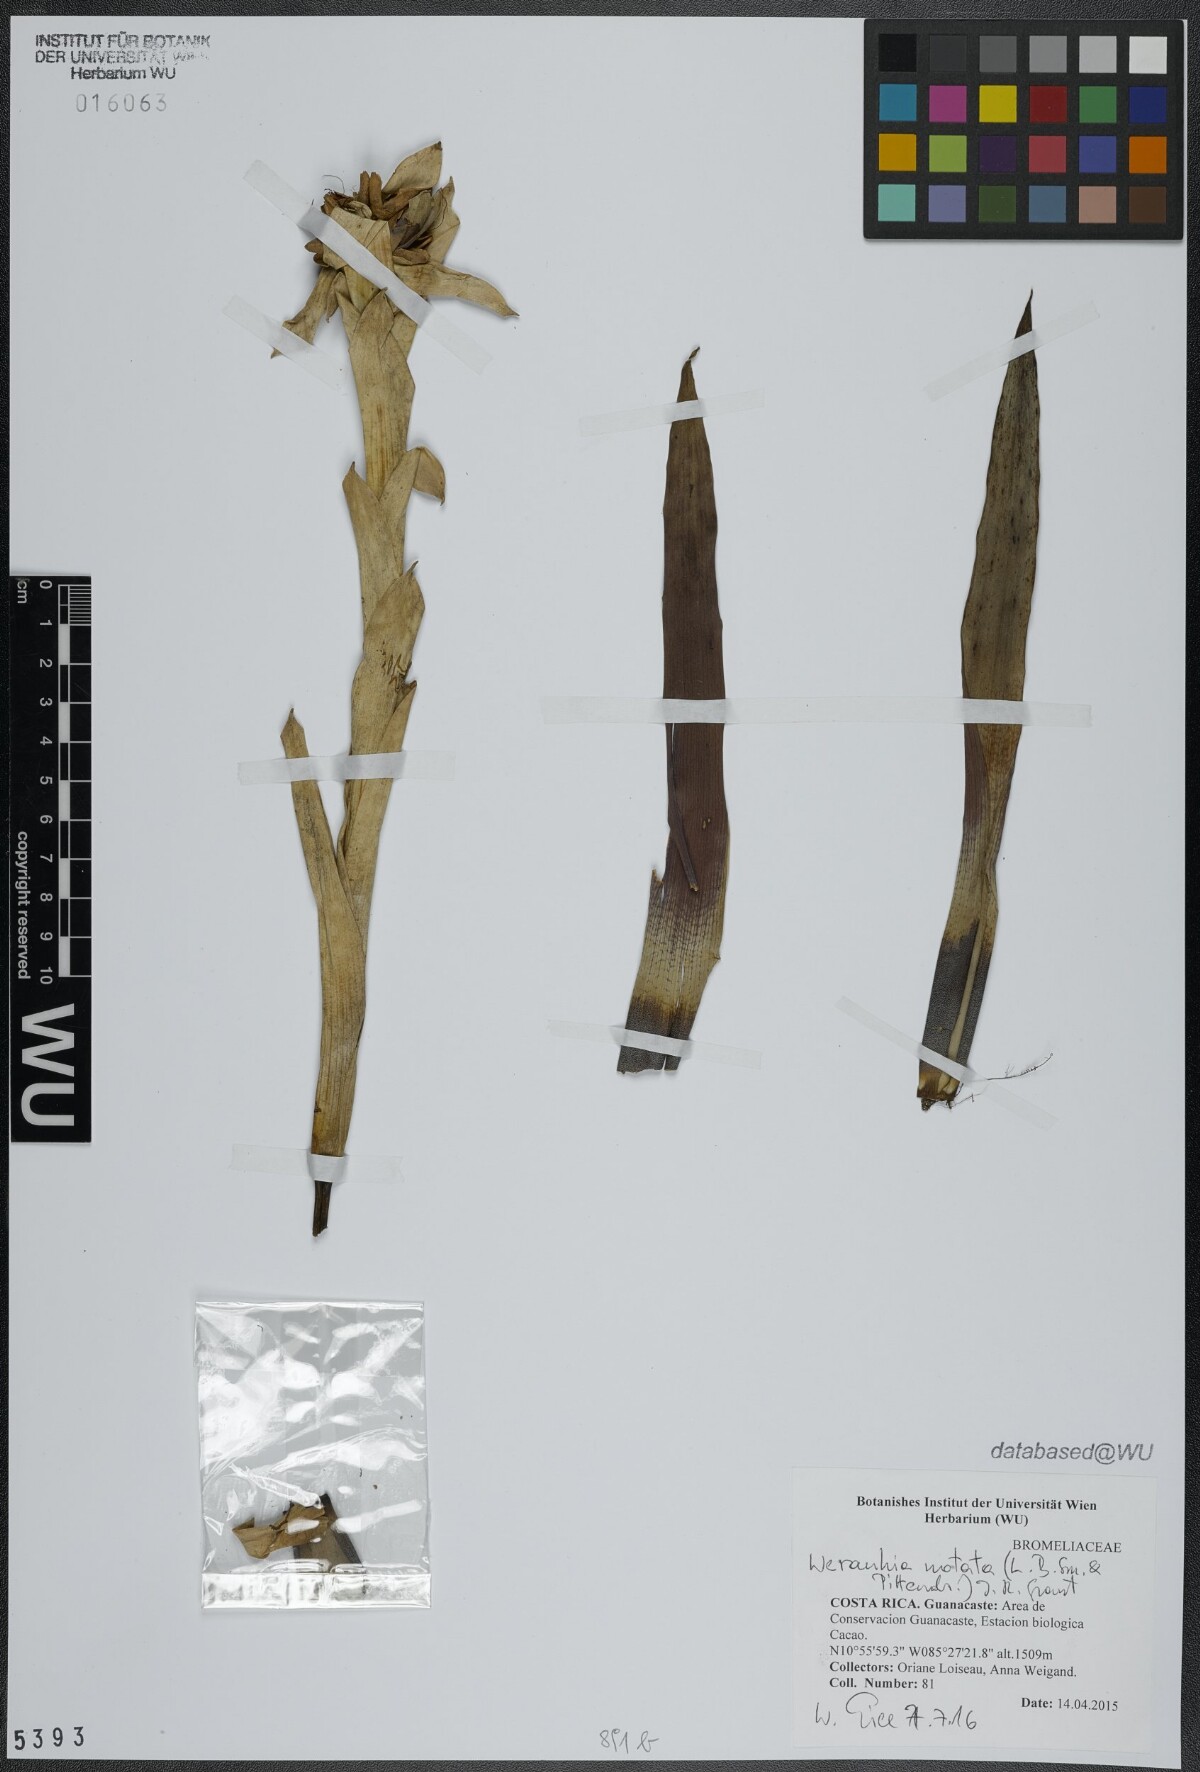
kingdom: Plantae
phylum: Tracheophyta
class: Liliopsida
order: Poales
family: Bromeliaceae
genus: Werauhia
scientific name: Werauhia notata
